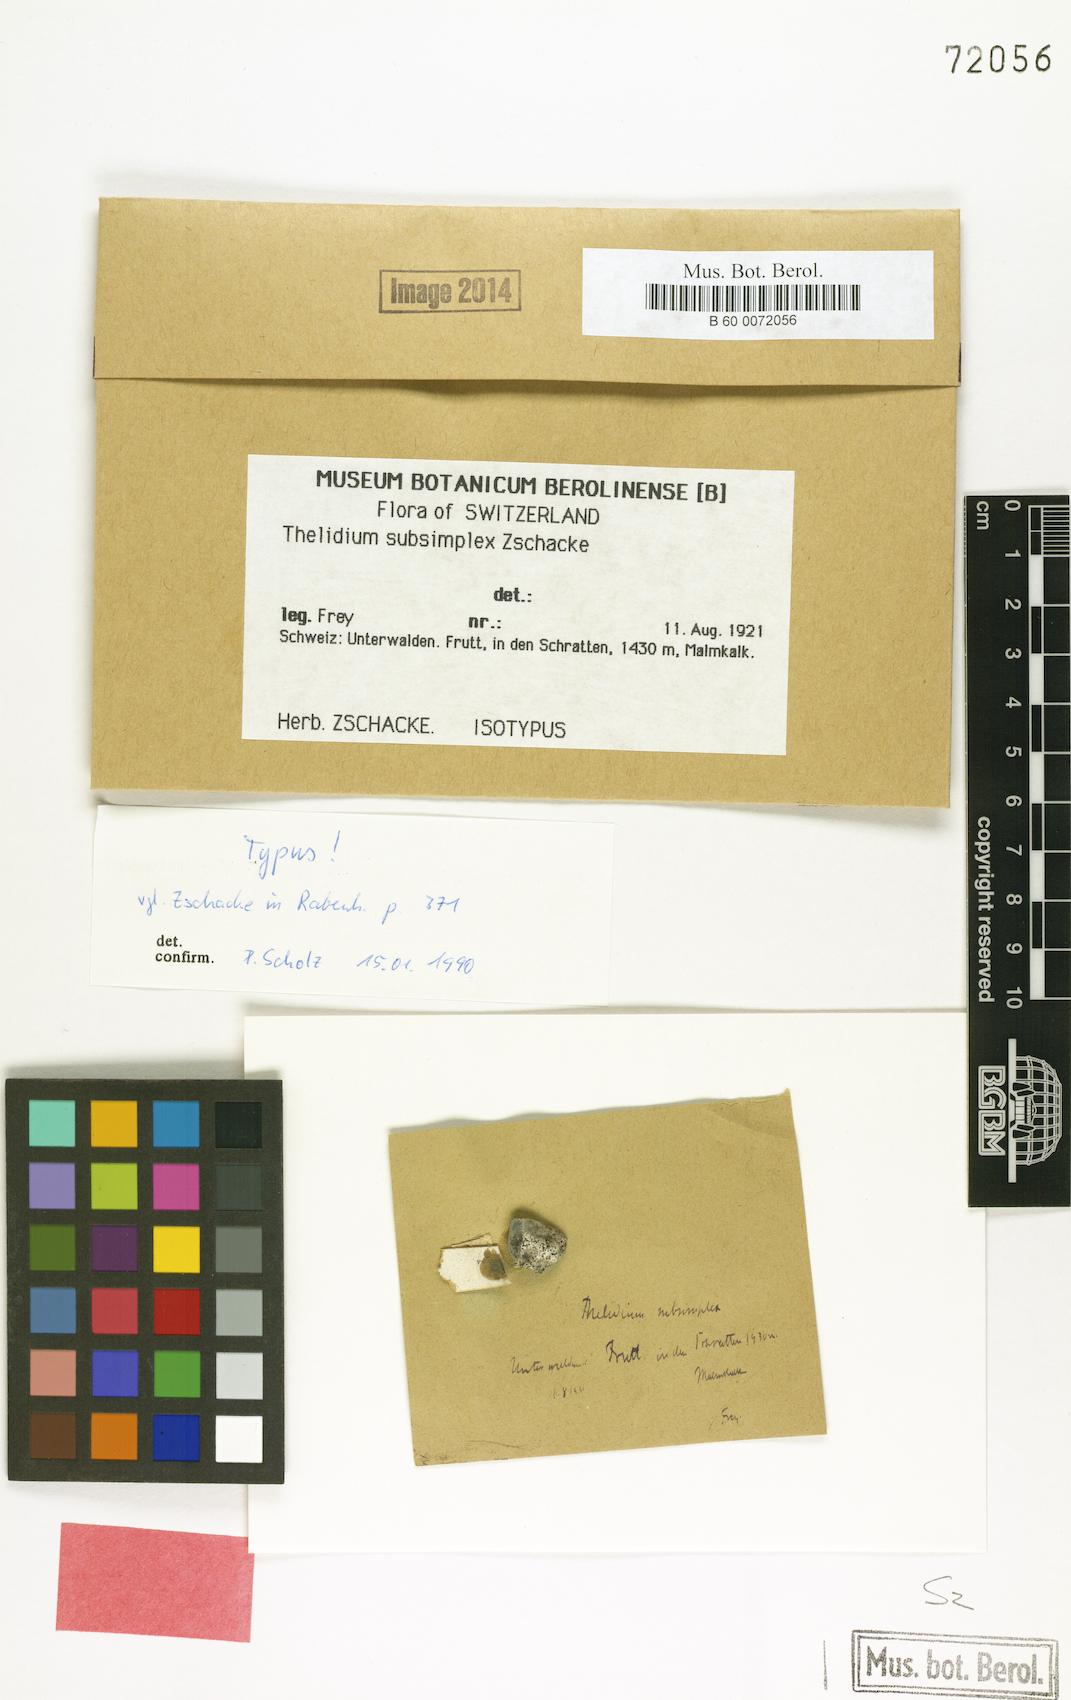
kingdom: Fungi
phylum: Ascomycota
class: Eurotiomycetes
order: Verrucariales
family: Verrucariaceae
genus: Thelidium
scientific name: Thelidium
